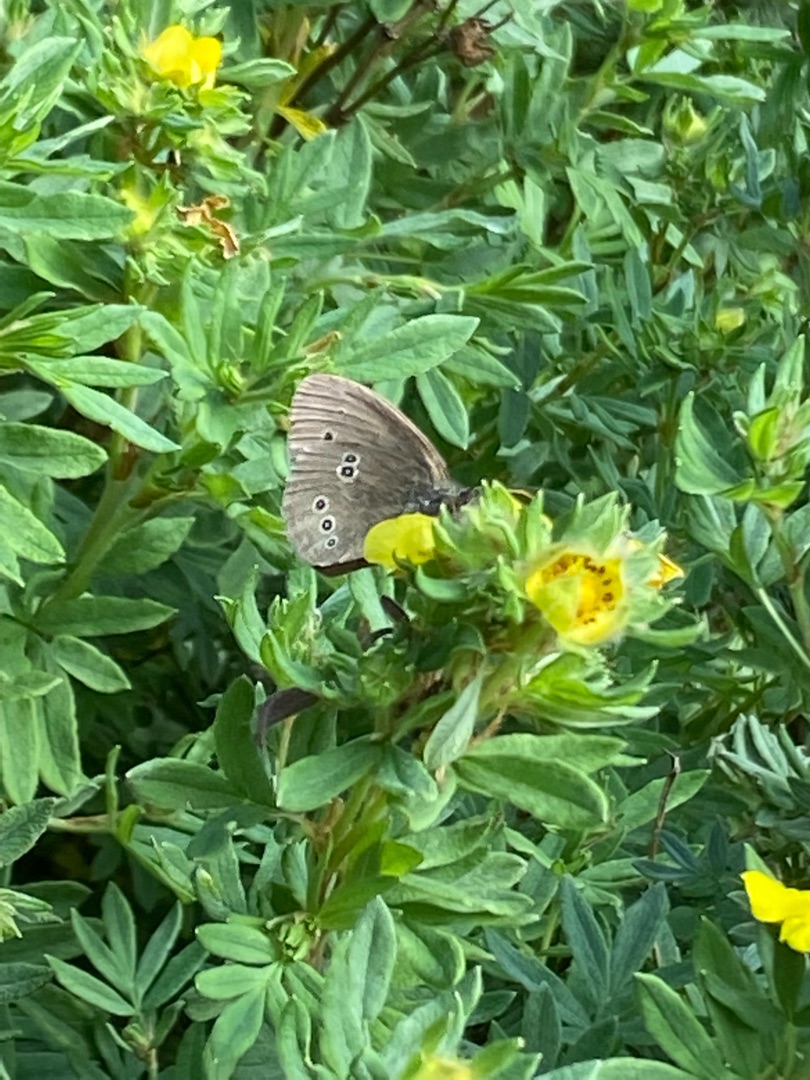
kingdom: Animalia
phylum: Arthropoda
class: Insecta
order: Lepidoptera
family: Nymphalidae
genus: Aphantopus
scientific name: Aphantopus hyperantus
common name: Engrandøje
